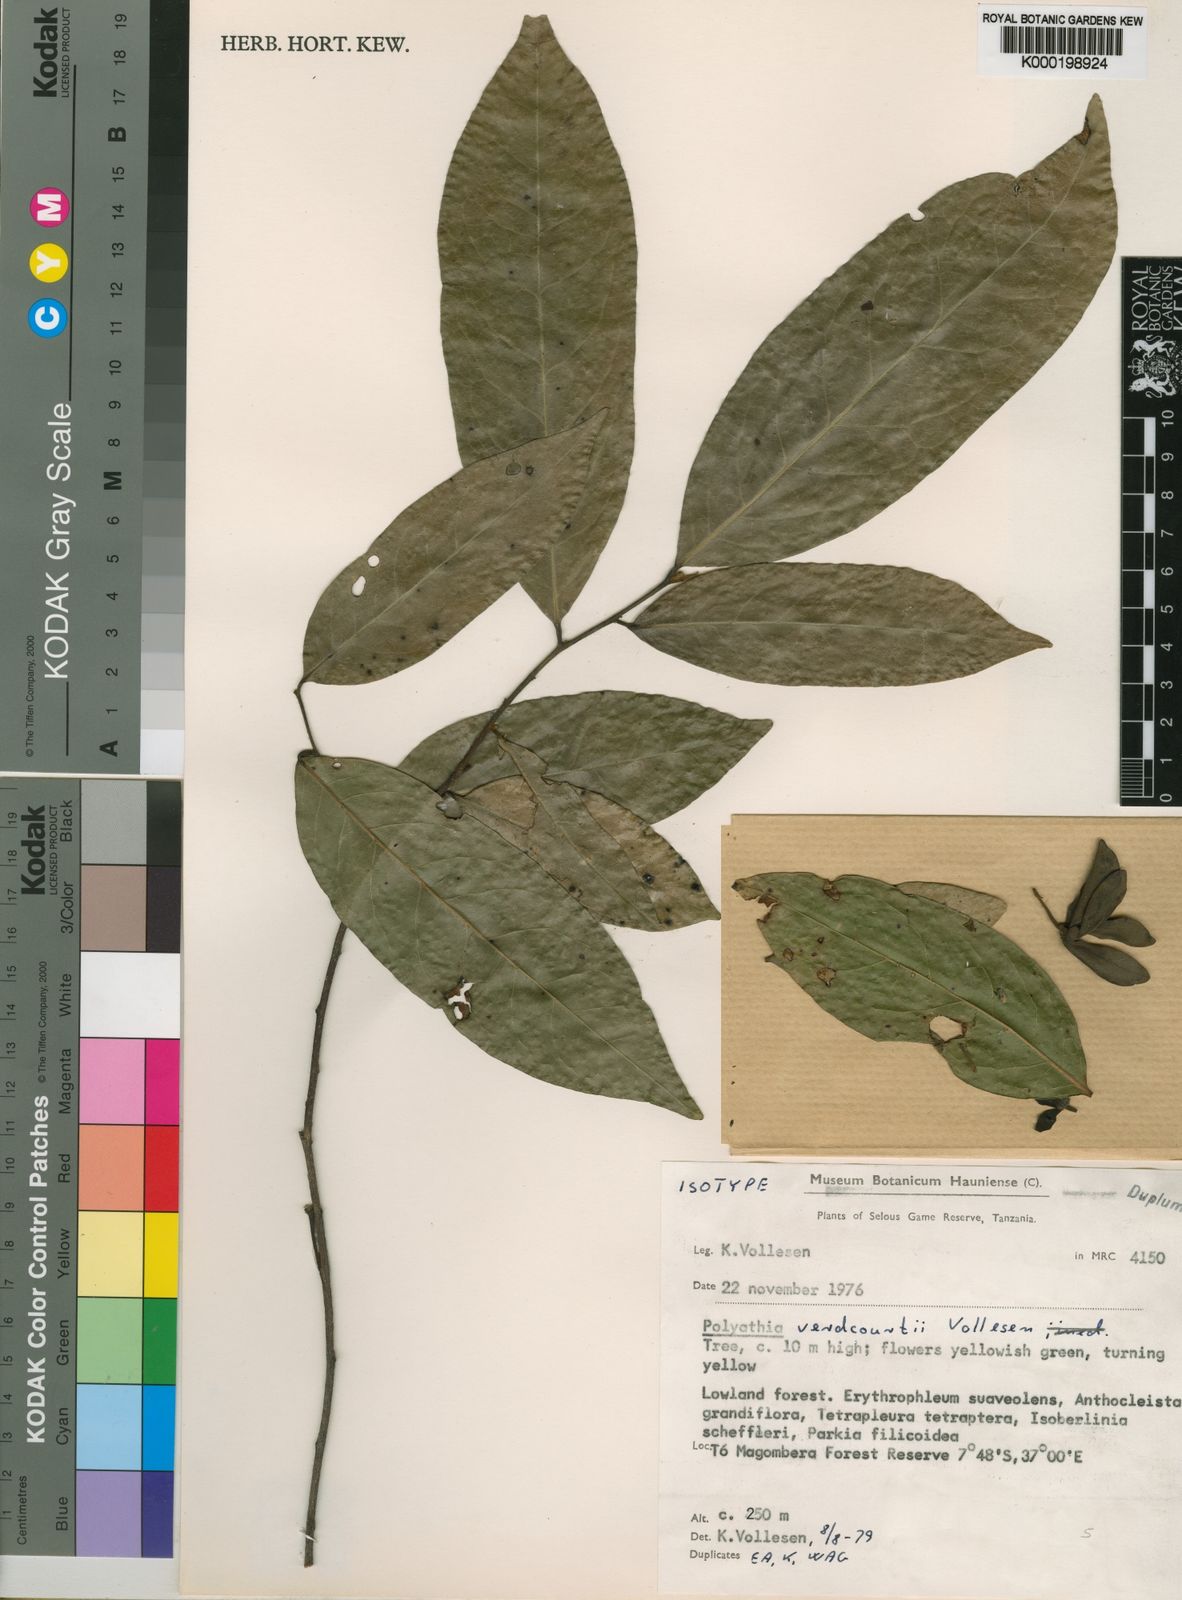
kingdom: Plantae
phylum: Tracheophyta
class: Magnoliopsida
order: Magnoliales
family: Annonaceae
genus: Hubera
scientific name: Hubera verdcourtii
